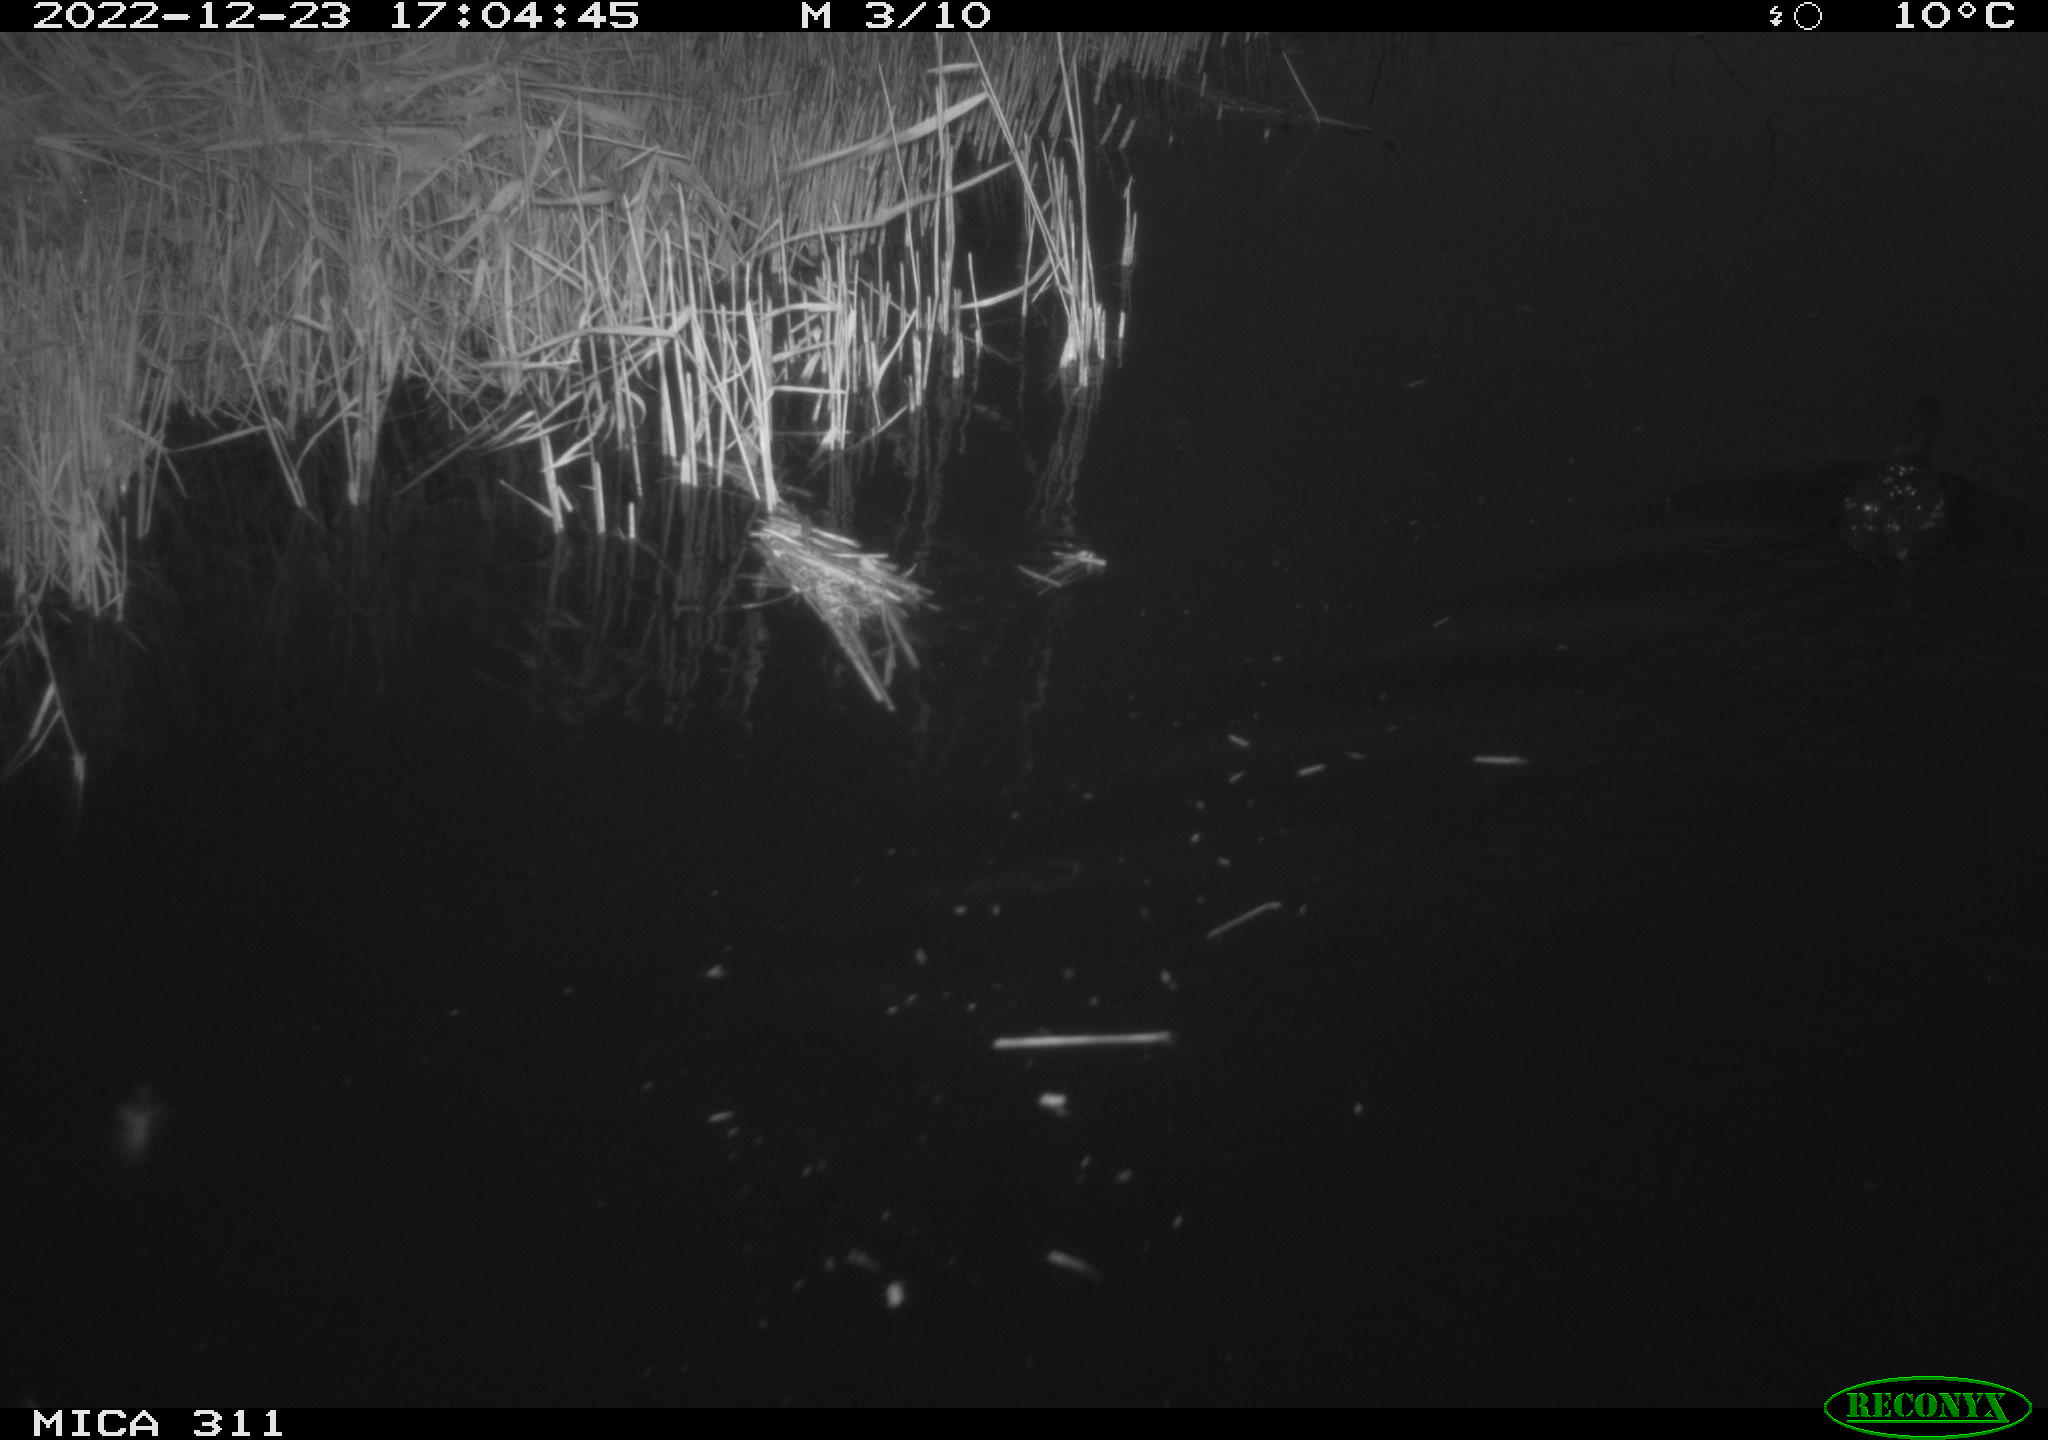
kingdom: Animalia
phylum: Chordata
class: Aves
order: Anseriformes
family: Anatidae
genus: Anas
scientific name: Anas
